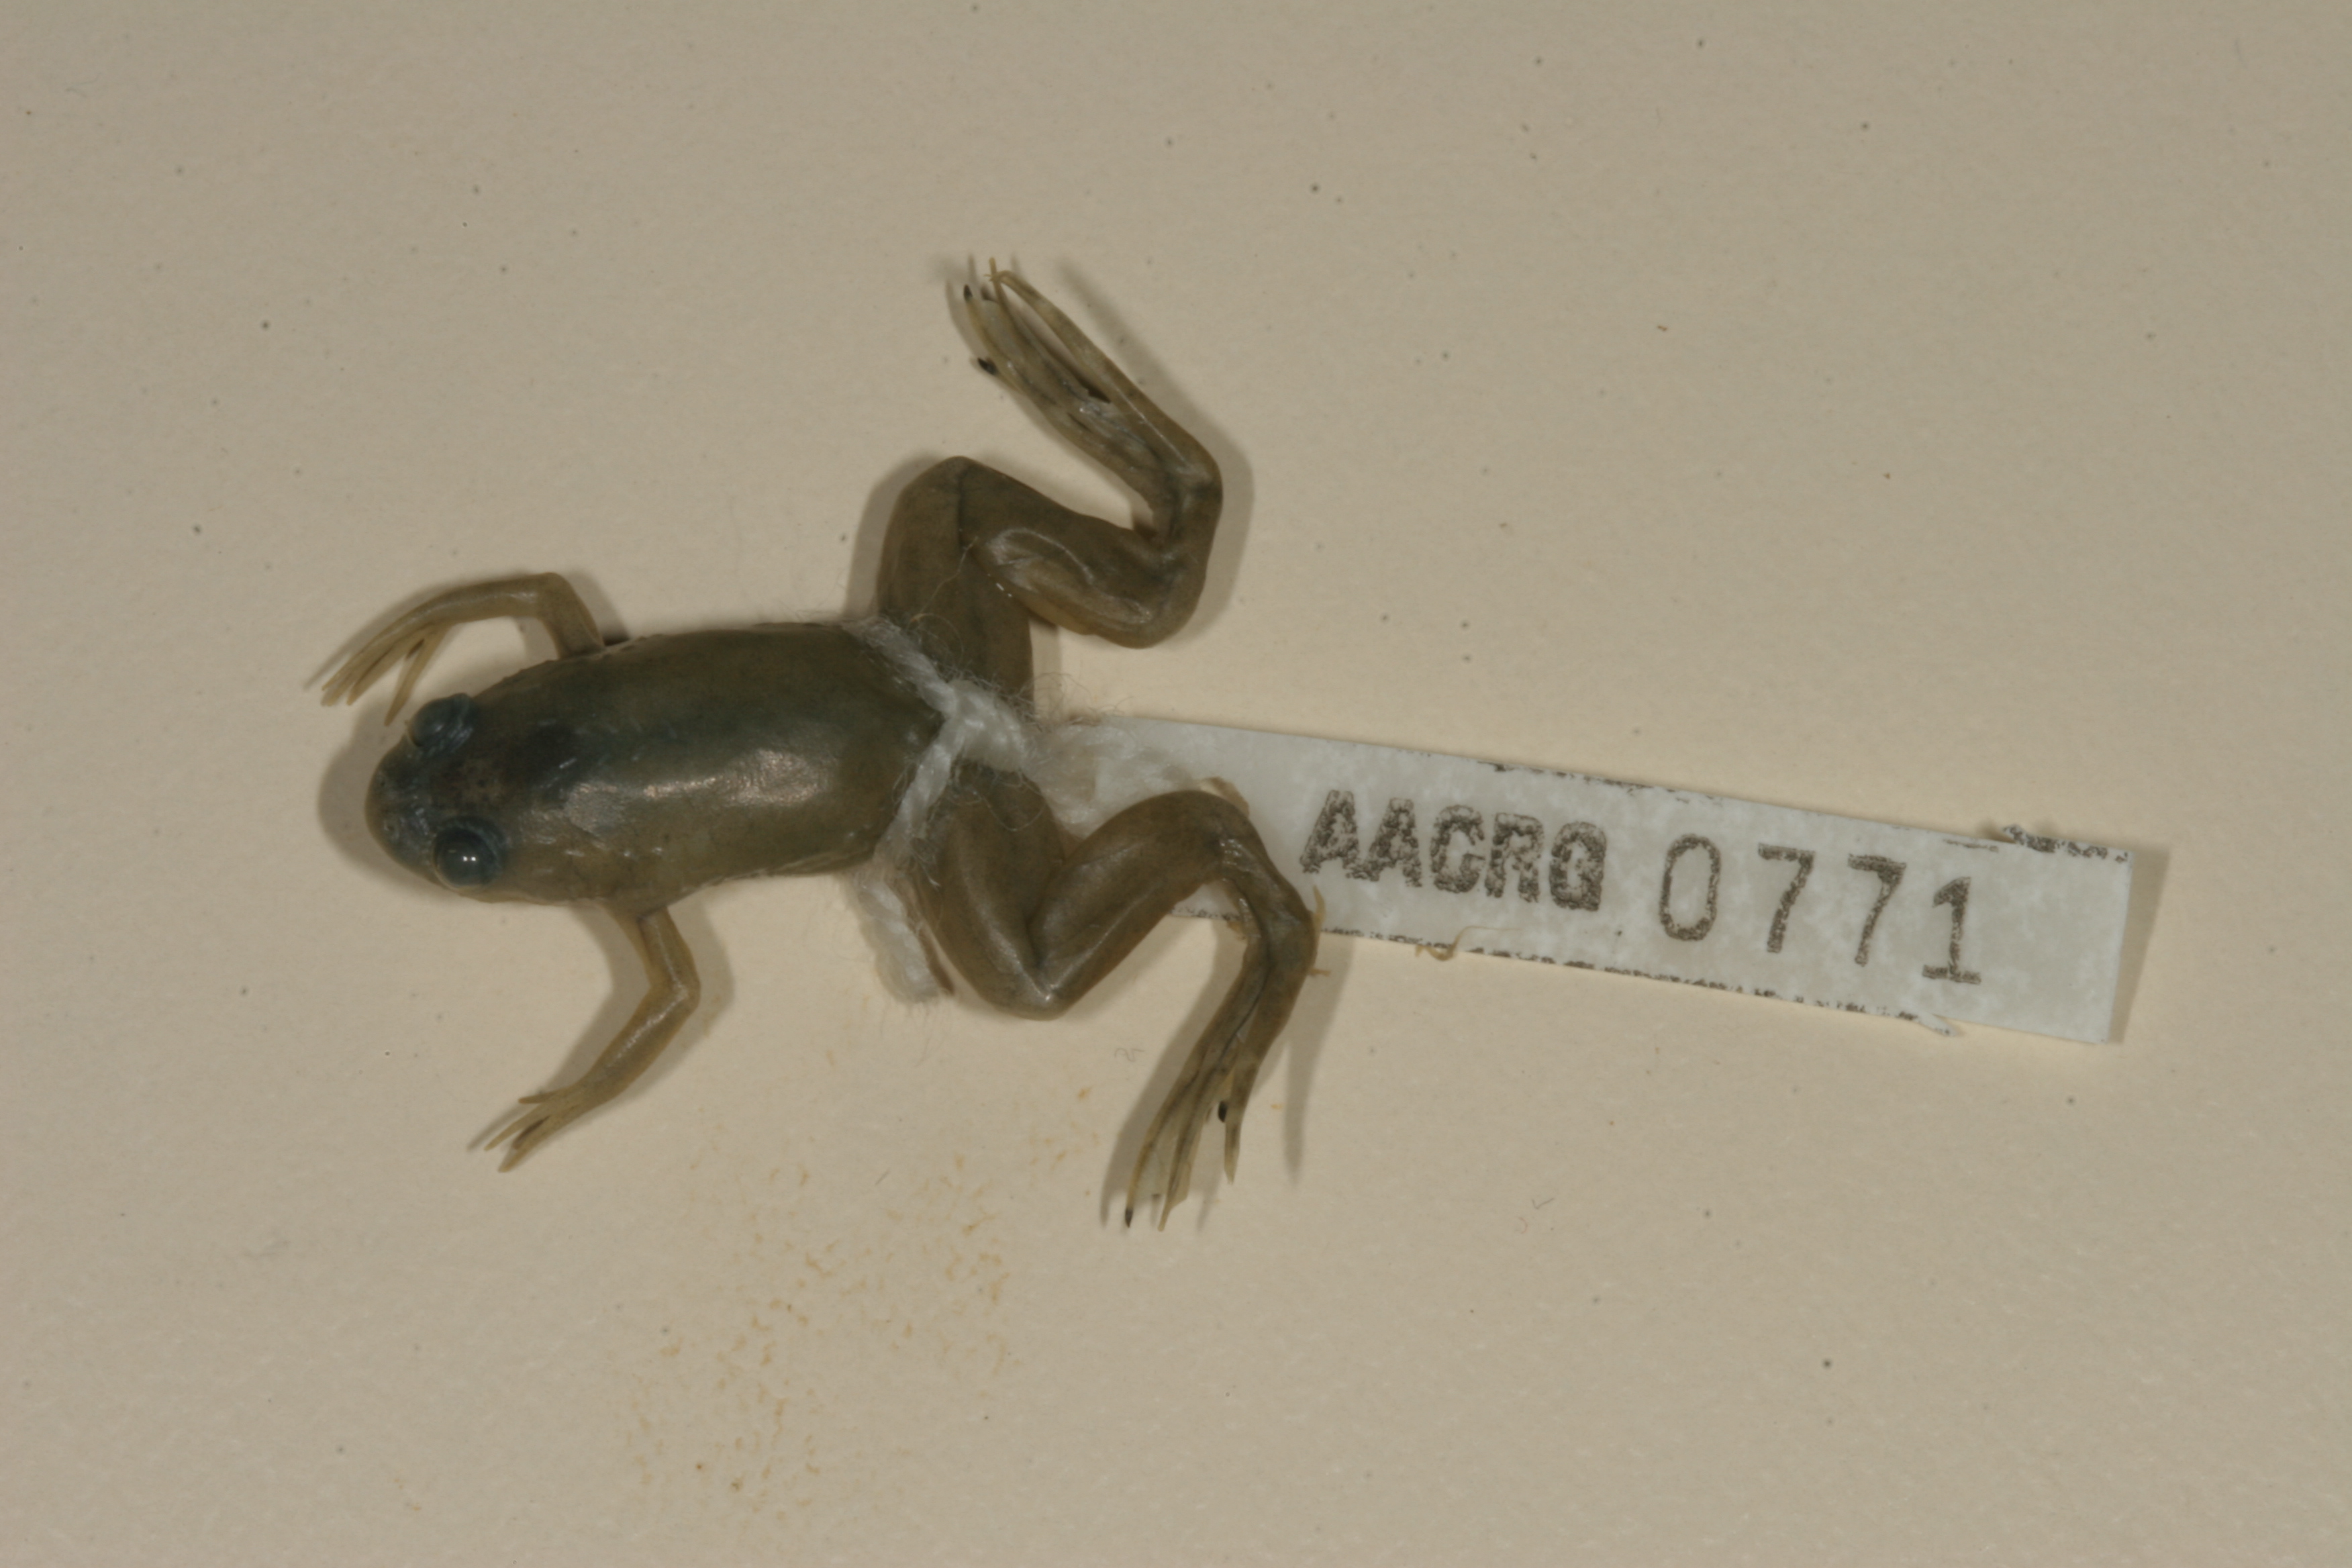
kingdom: Animalia
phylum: Chordata
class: Amphibia
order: Anura
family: Pipidae
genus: Xenopus
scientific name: Xenopus laevis
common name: African clawed frog
